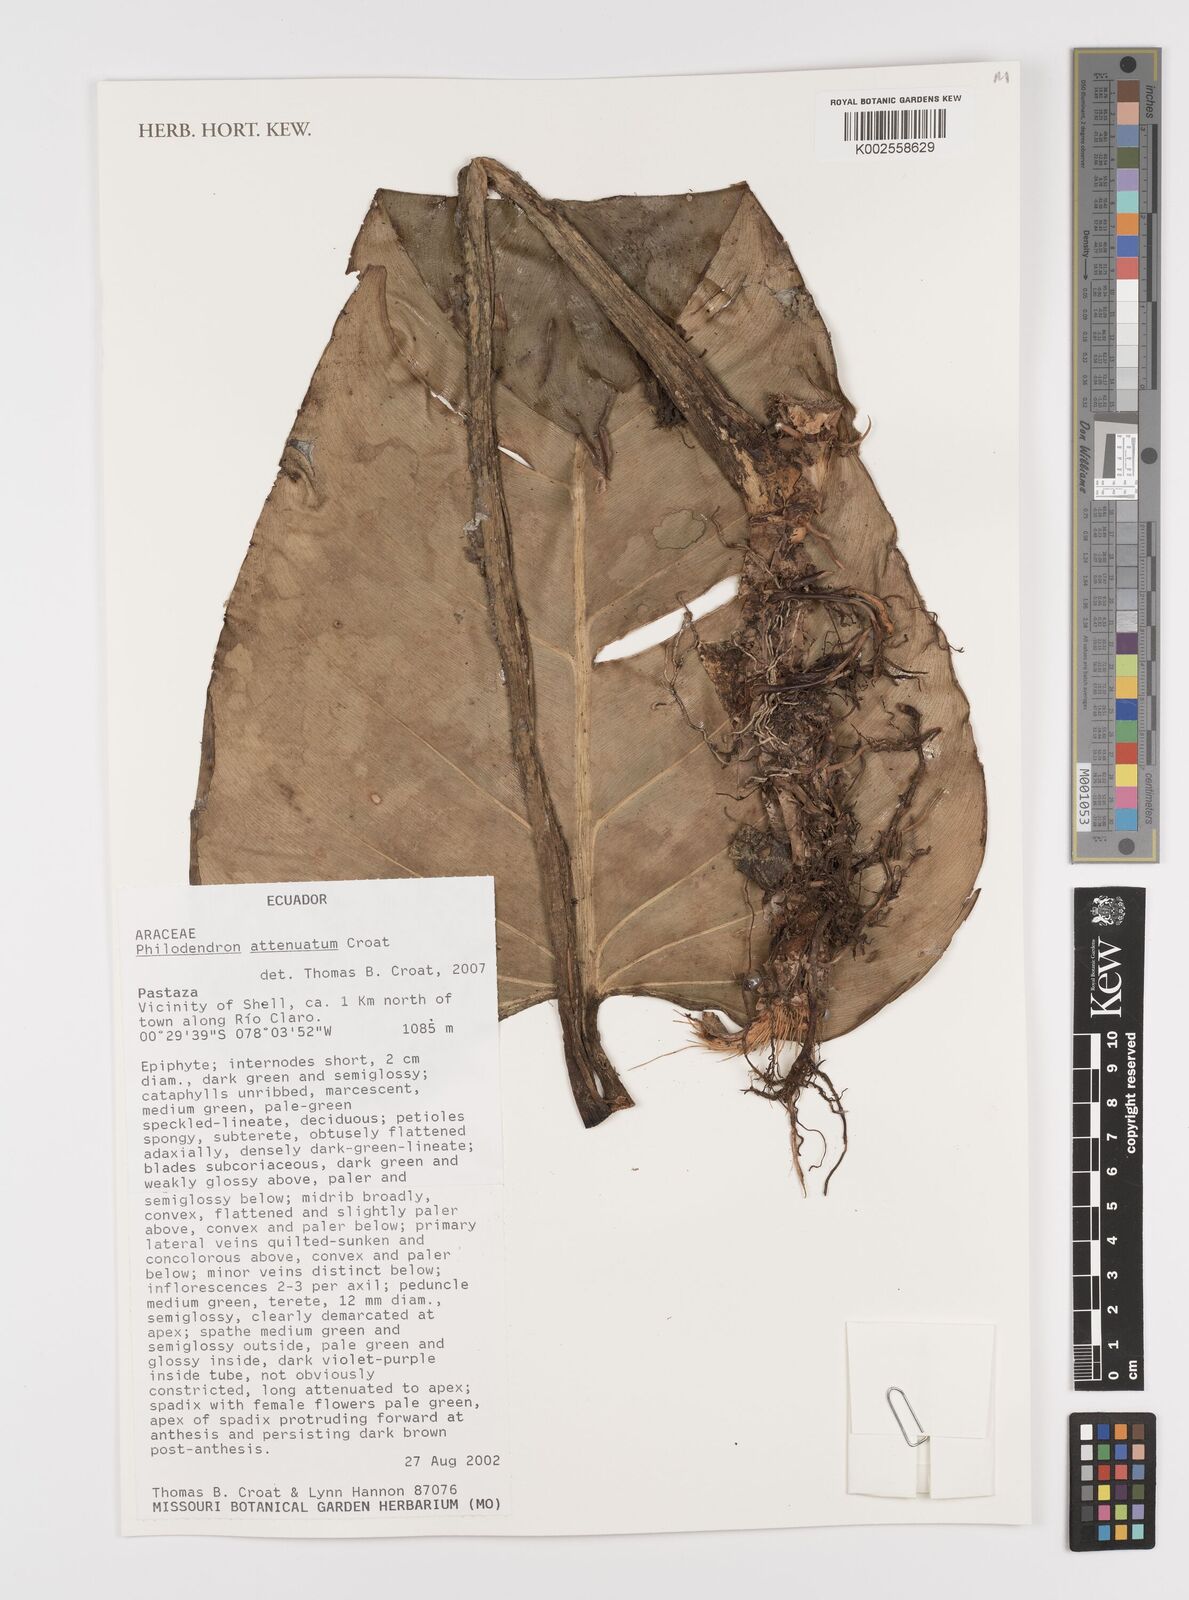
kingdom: Plantae
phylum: Tracheophyta
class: Liliopsida
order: Alismatales
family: Araceae
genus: Philodendron
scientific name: Philodendron attenuatum
